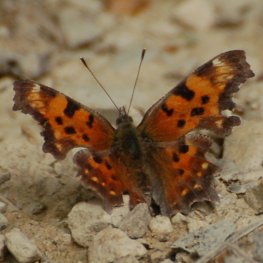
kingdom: Animalia
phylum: Arthropoda
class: Insecta
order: Lepidoptera
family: Nymphalidae
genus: Polygonia
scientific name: Polygonia faunus
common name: Green Comma
